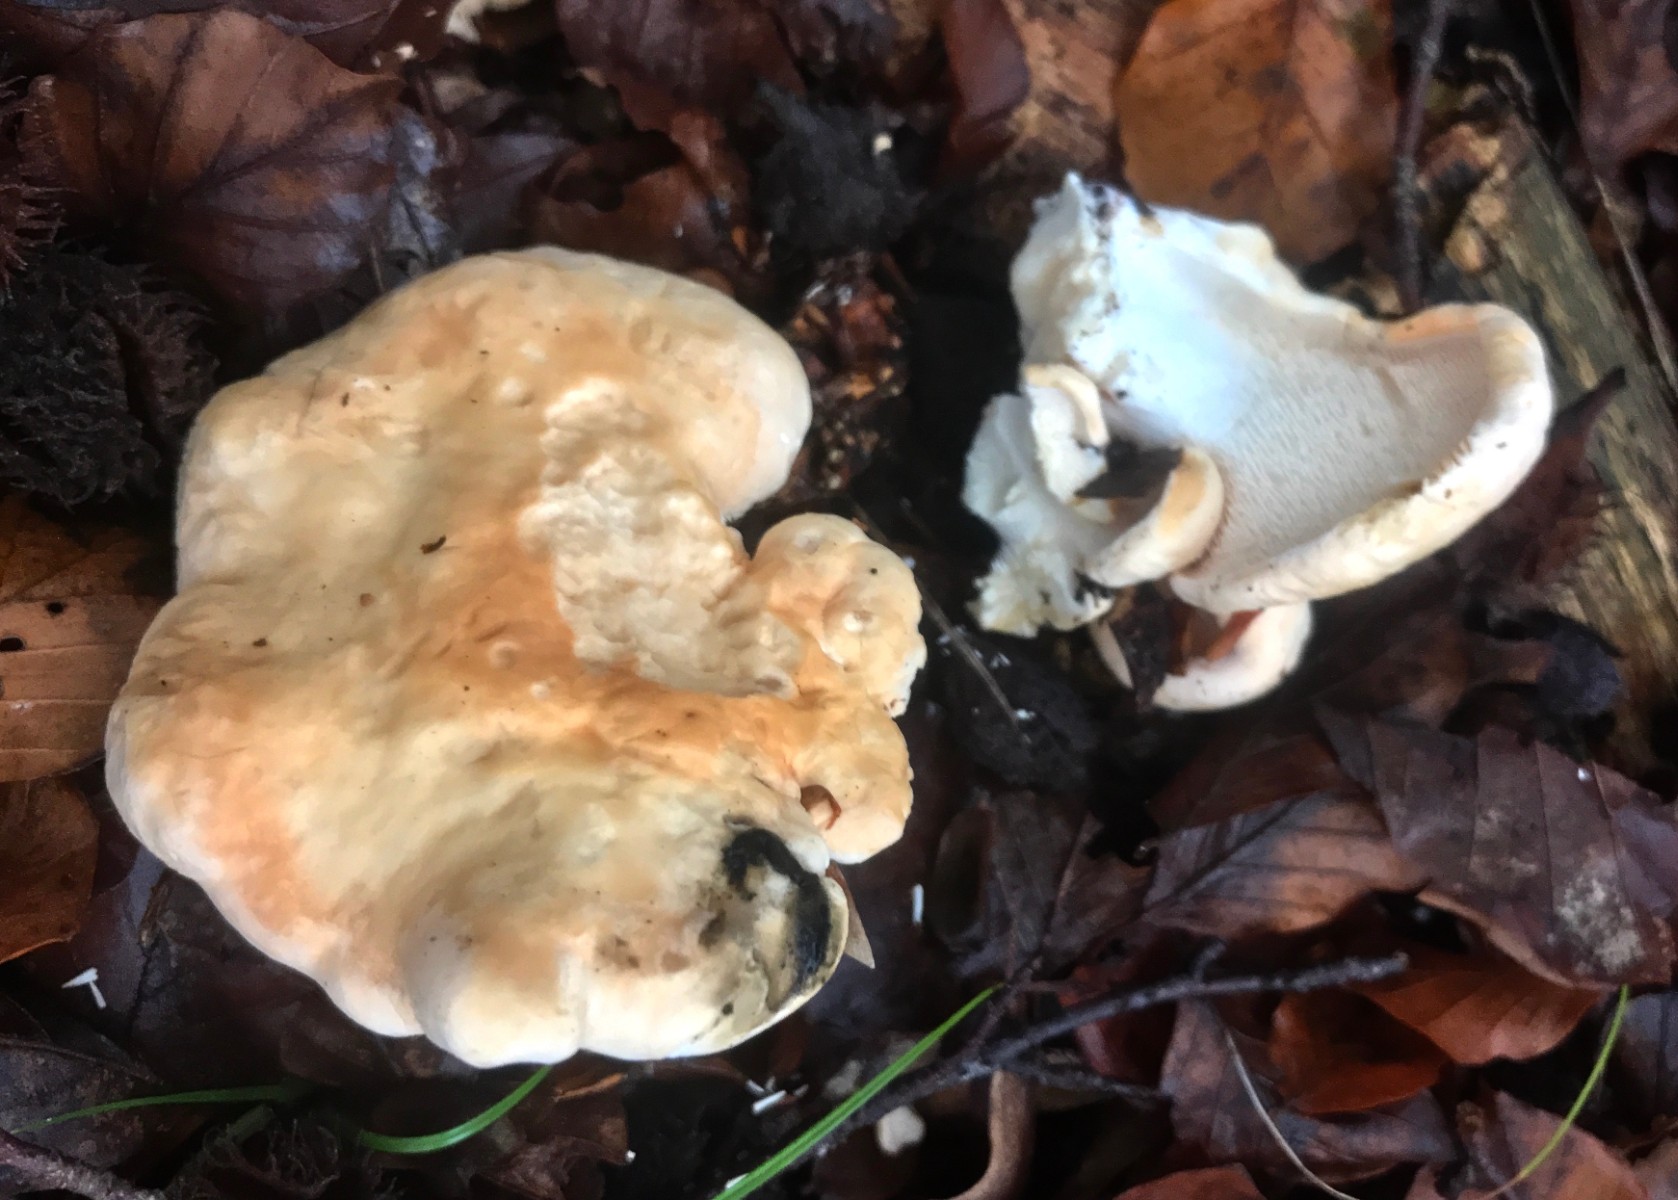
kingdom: Fungi
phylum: Basidiomycota
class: Agaricomycetes
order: Cantharellales
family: Hydnaceae
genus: Hydnum
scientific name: Hydnum
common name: pigsvamp
